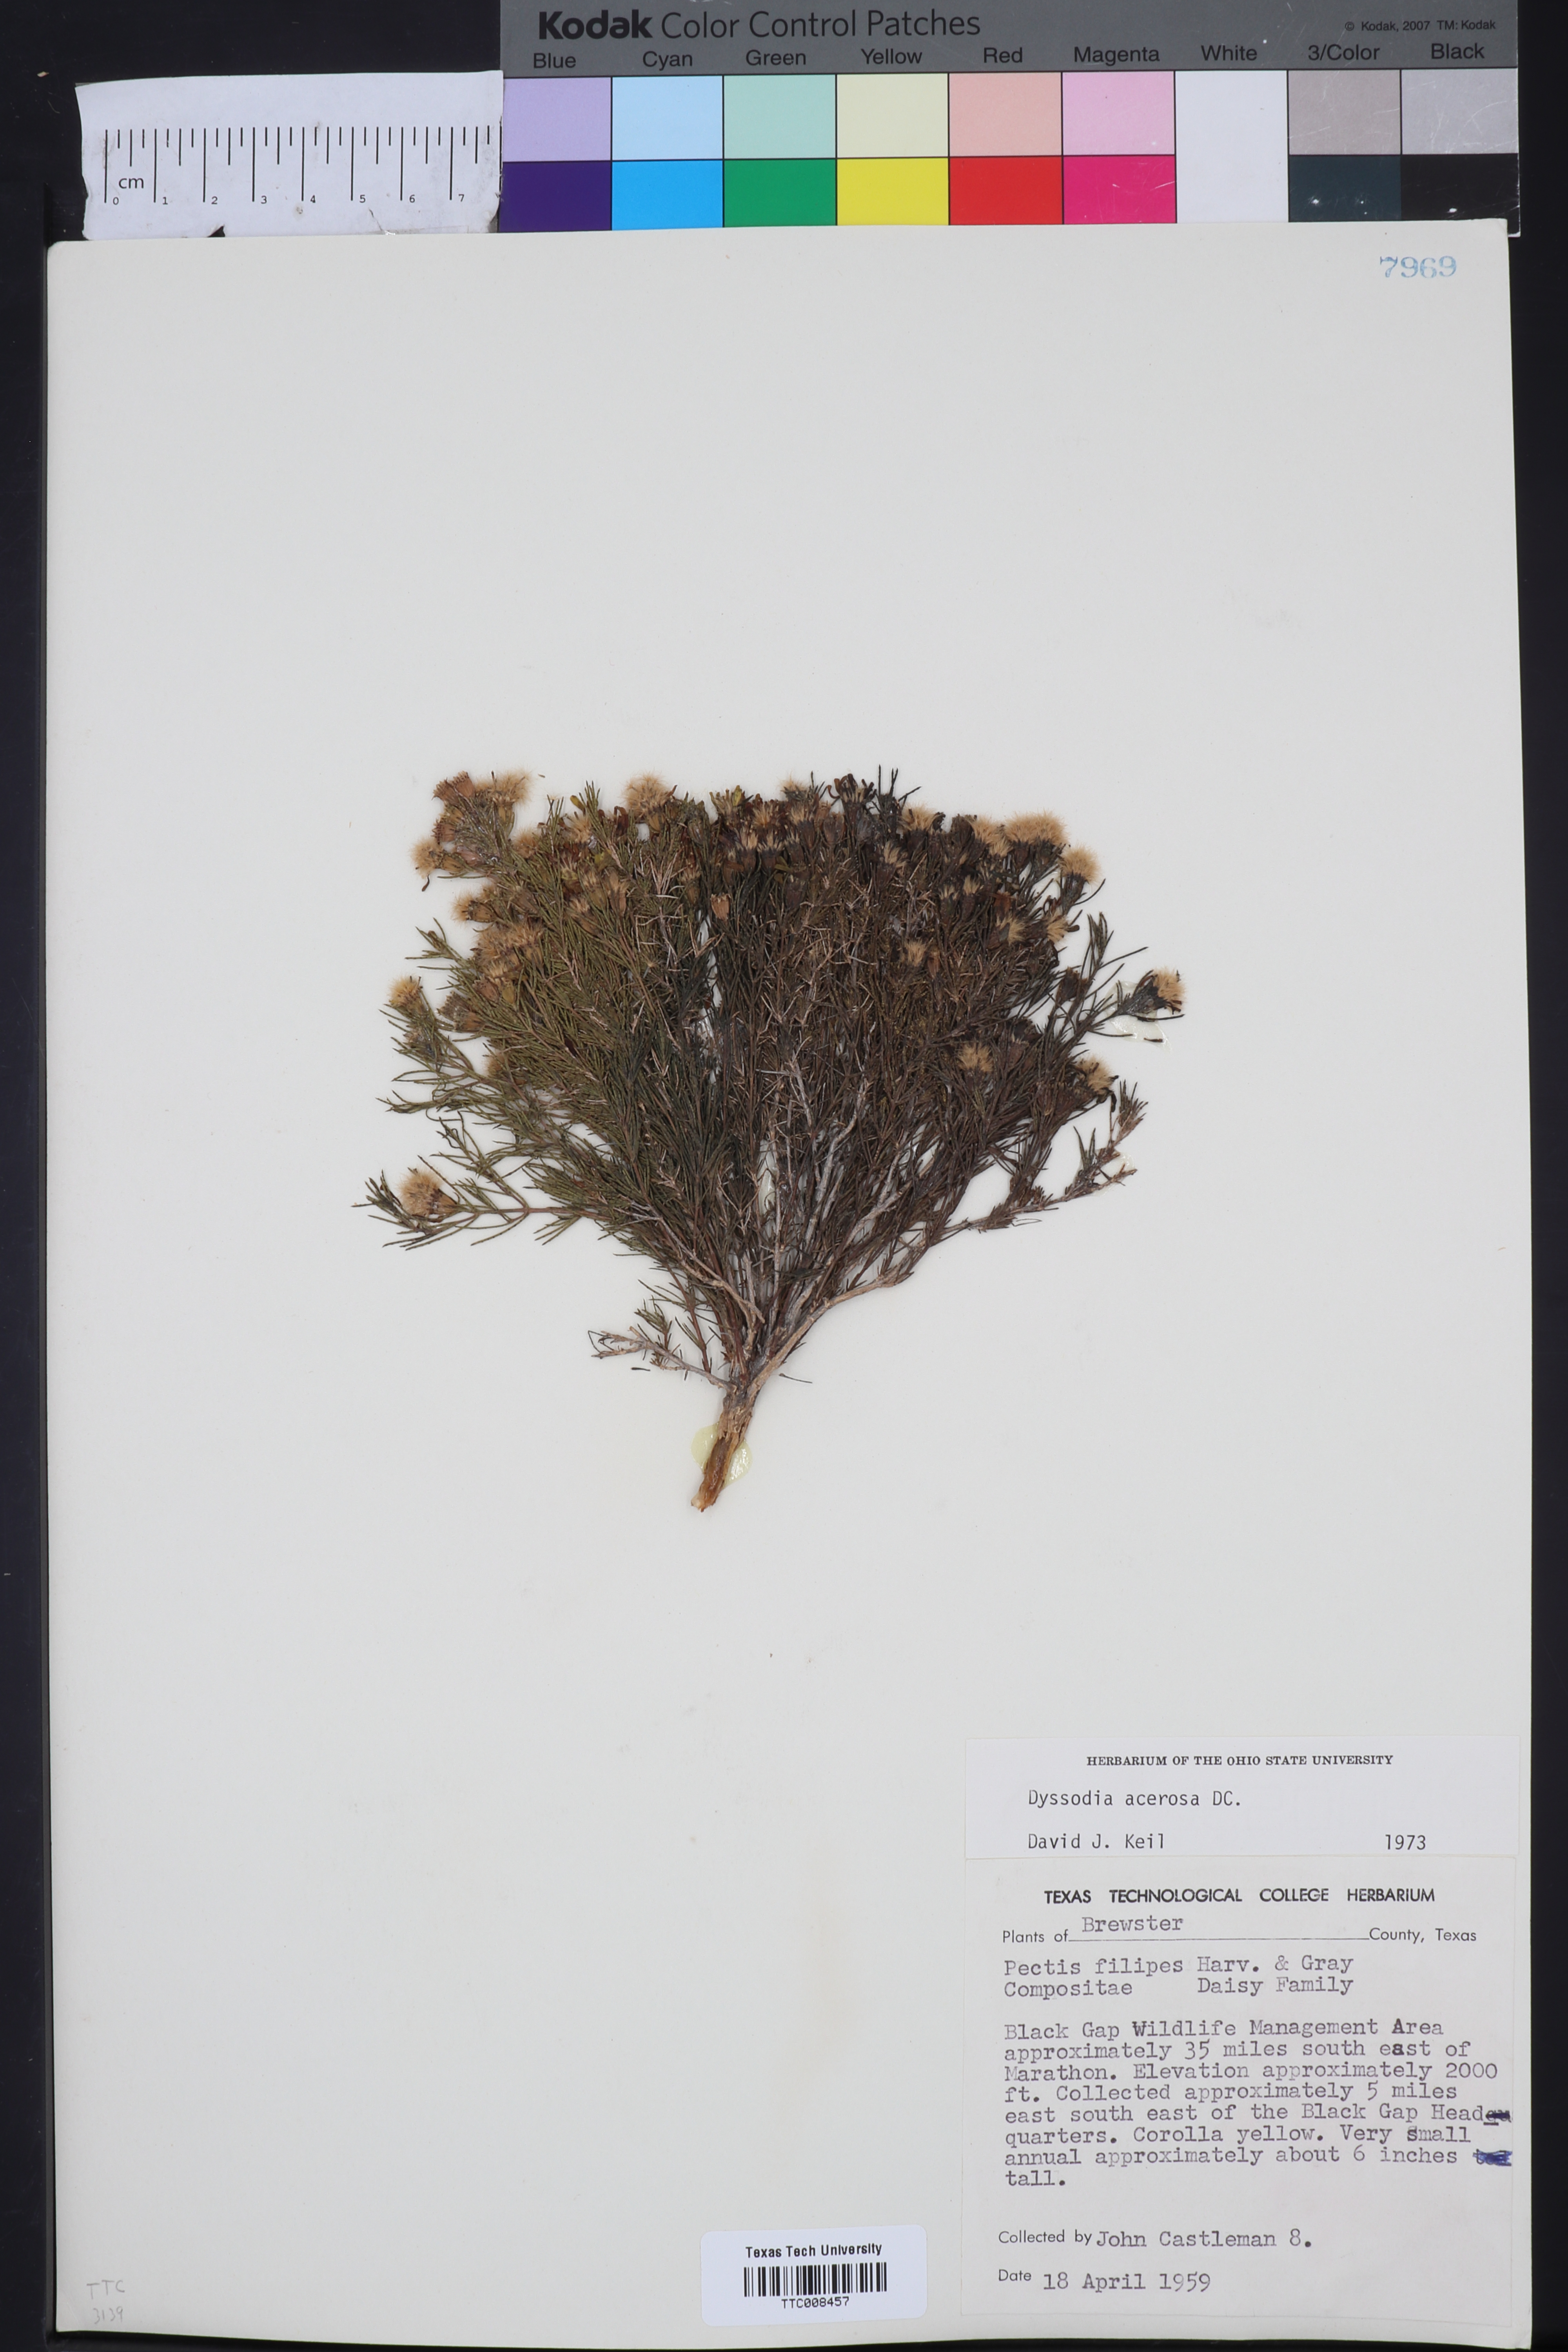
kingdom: Plantae
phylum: Tracheophyta
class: Magnoliopsida
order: Asterales
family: Asteraceae
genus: Thymophylla
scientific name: Thymophylla acerosa
